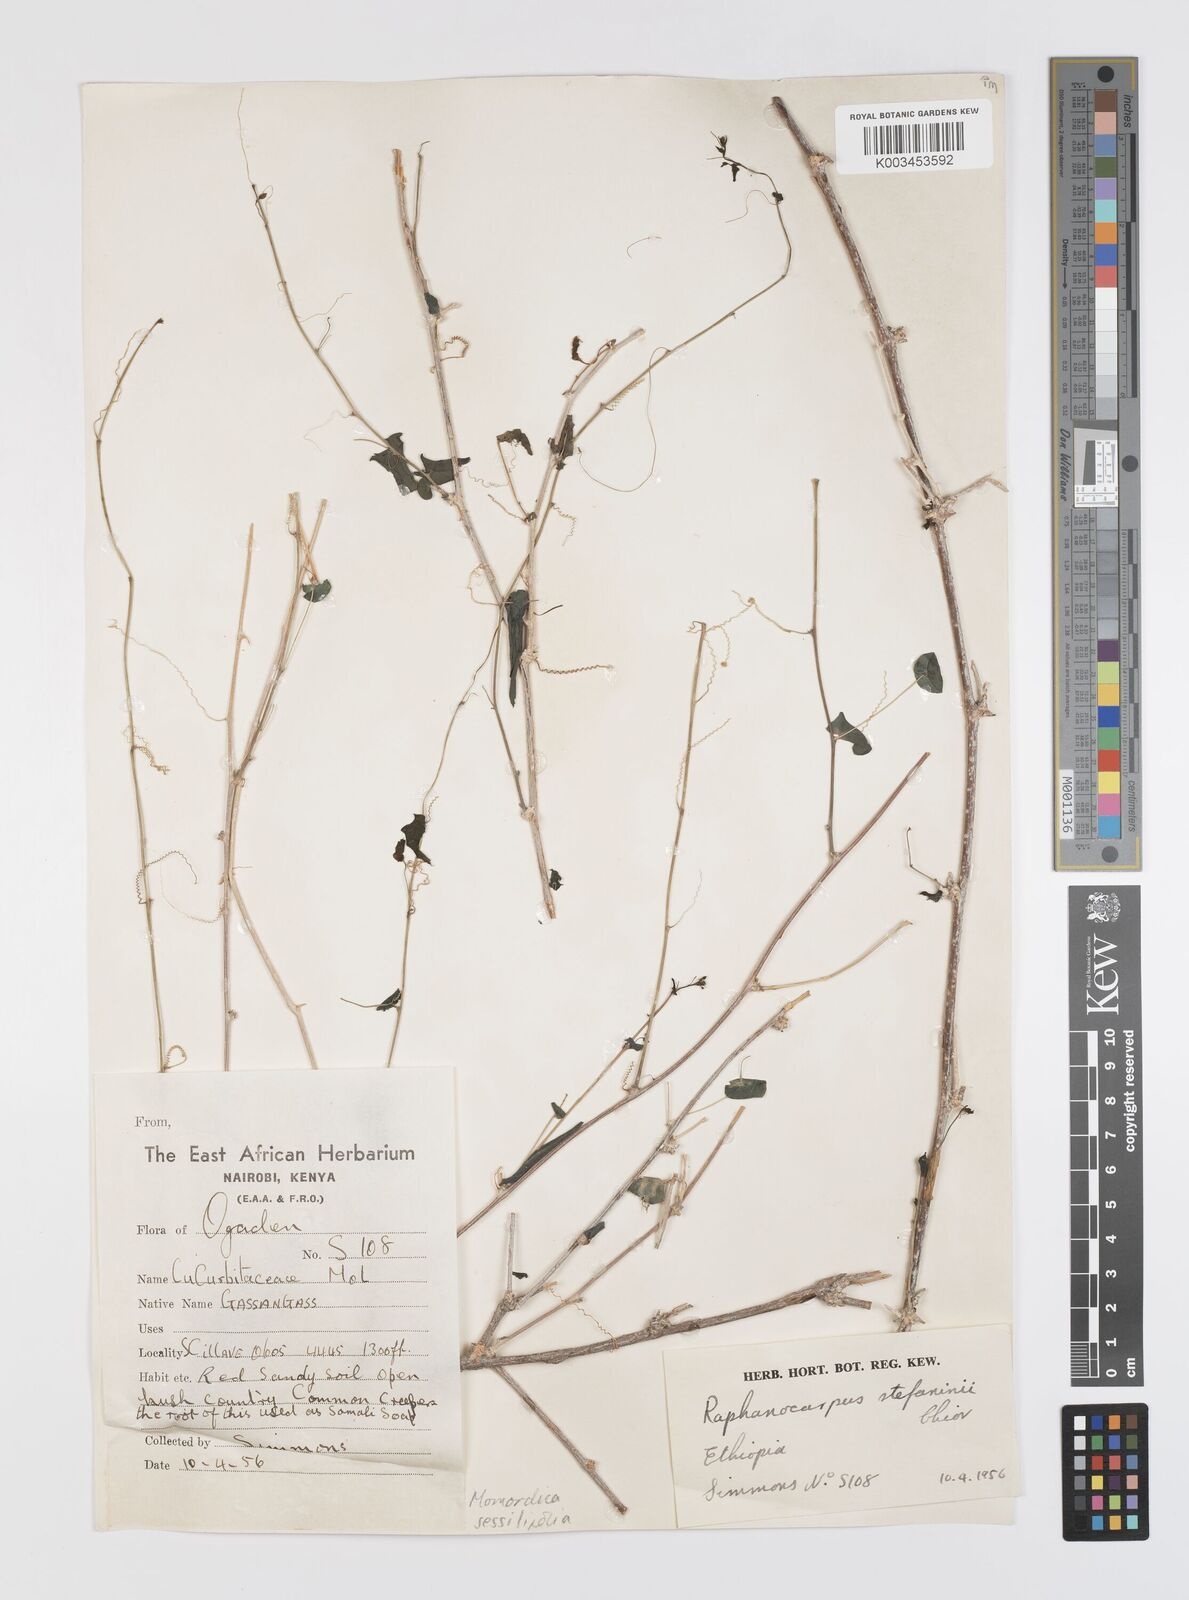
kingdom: Plantae
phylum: Tracheophyta
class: Magnoliopsida
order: Cucurbitales
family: Cucurbitaceae
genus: Momordica
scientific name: Momordica sessilifolia
